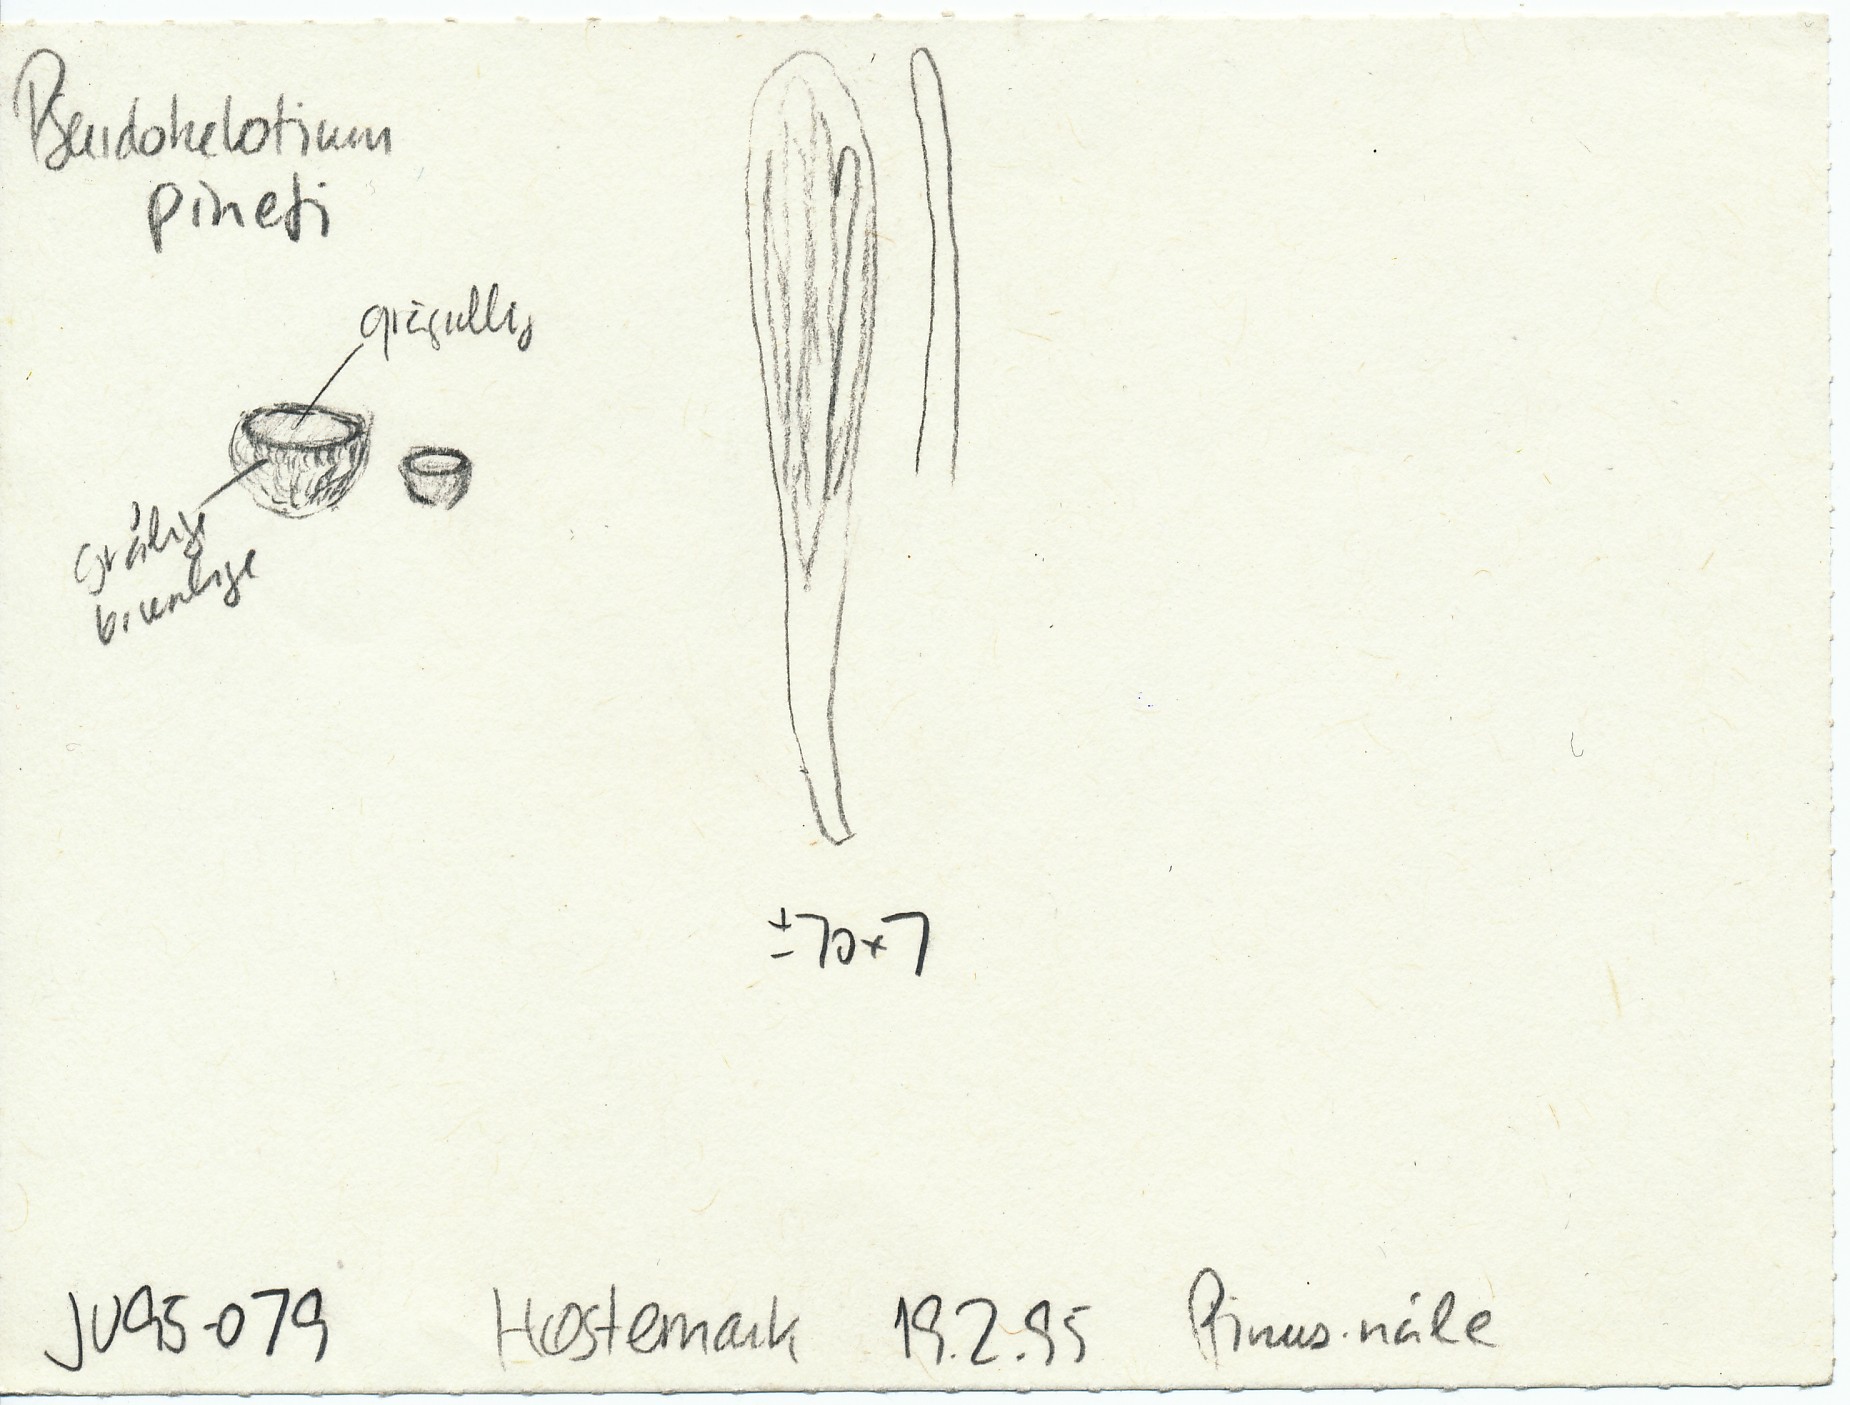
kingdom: Fungi
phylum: Ascomycota
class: Leotiomycetes
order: Helotiales
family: Helotiaceae
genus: Pseudohelotium
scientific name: Pseudohelotium pineti
